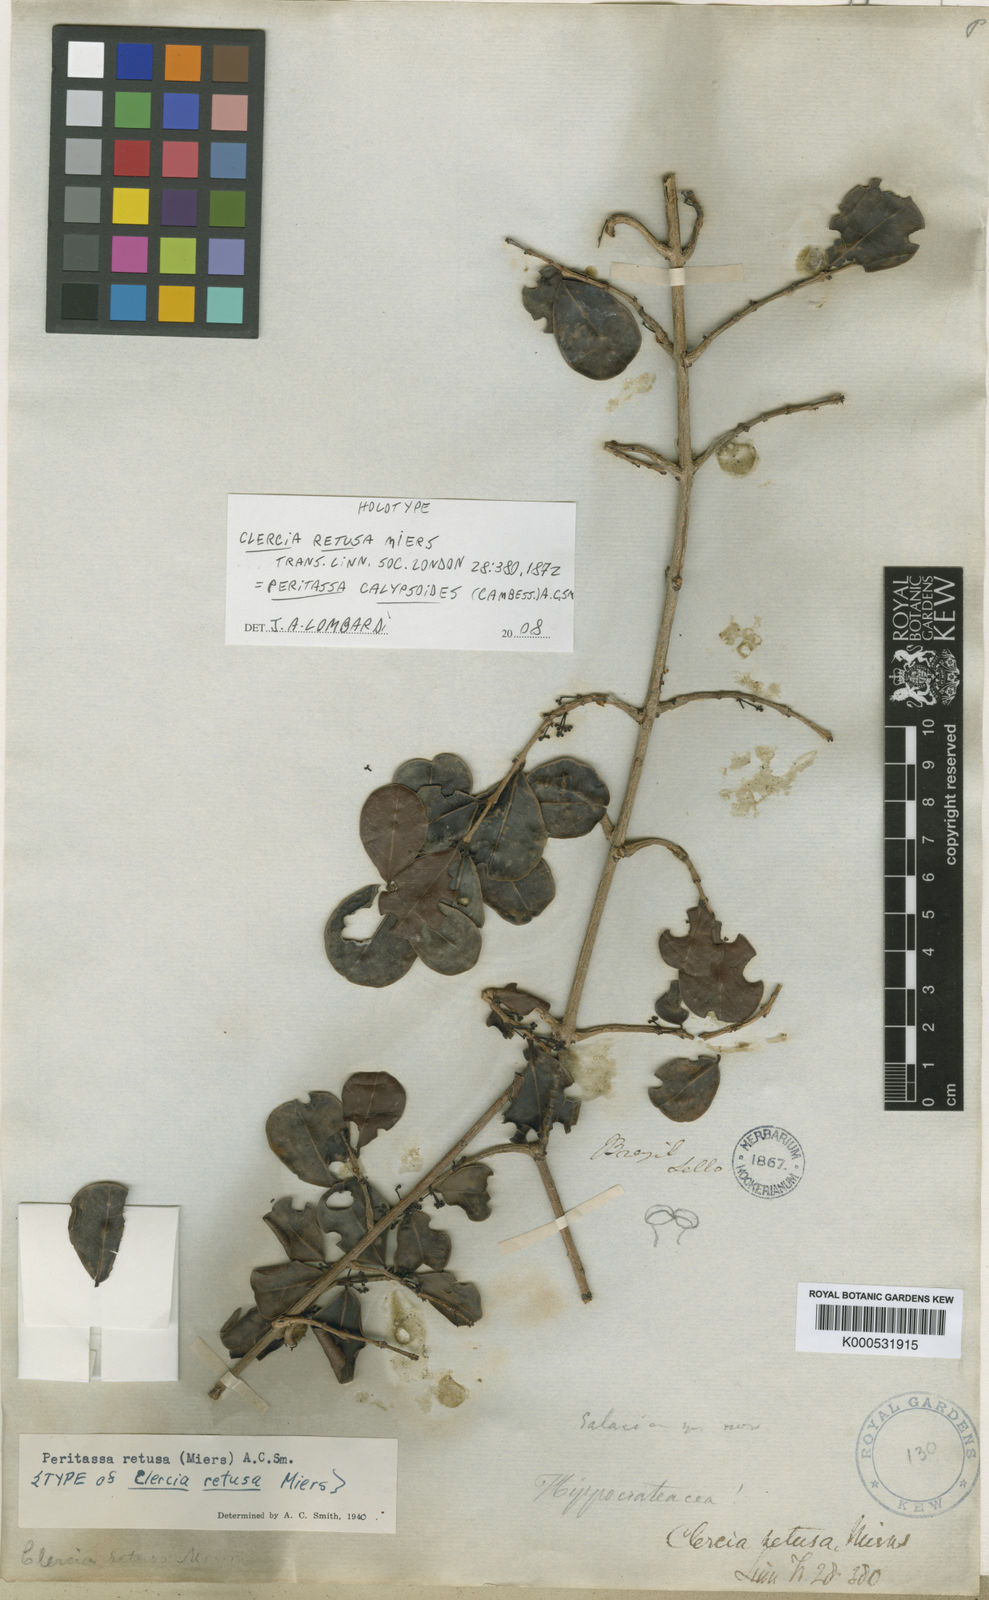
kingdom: Plantae
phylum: Tracheophyta
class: Magnoliopsida
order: Celastrales
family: Celastraceae
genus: Peritassa
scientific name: Peritassa calypsoides
